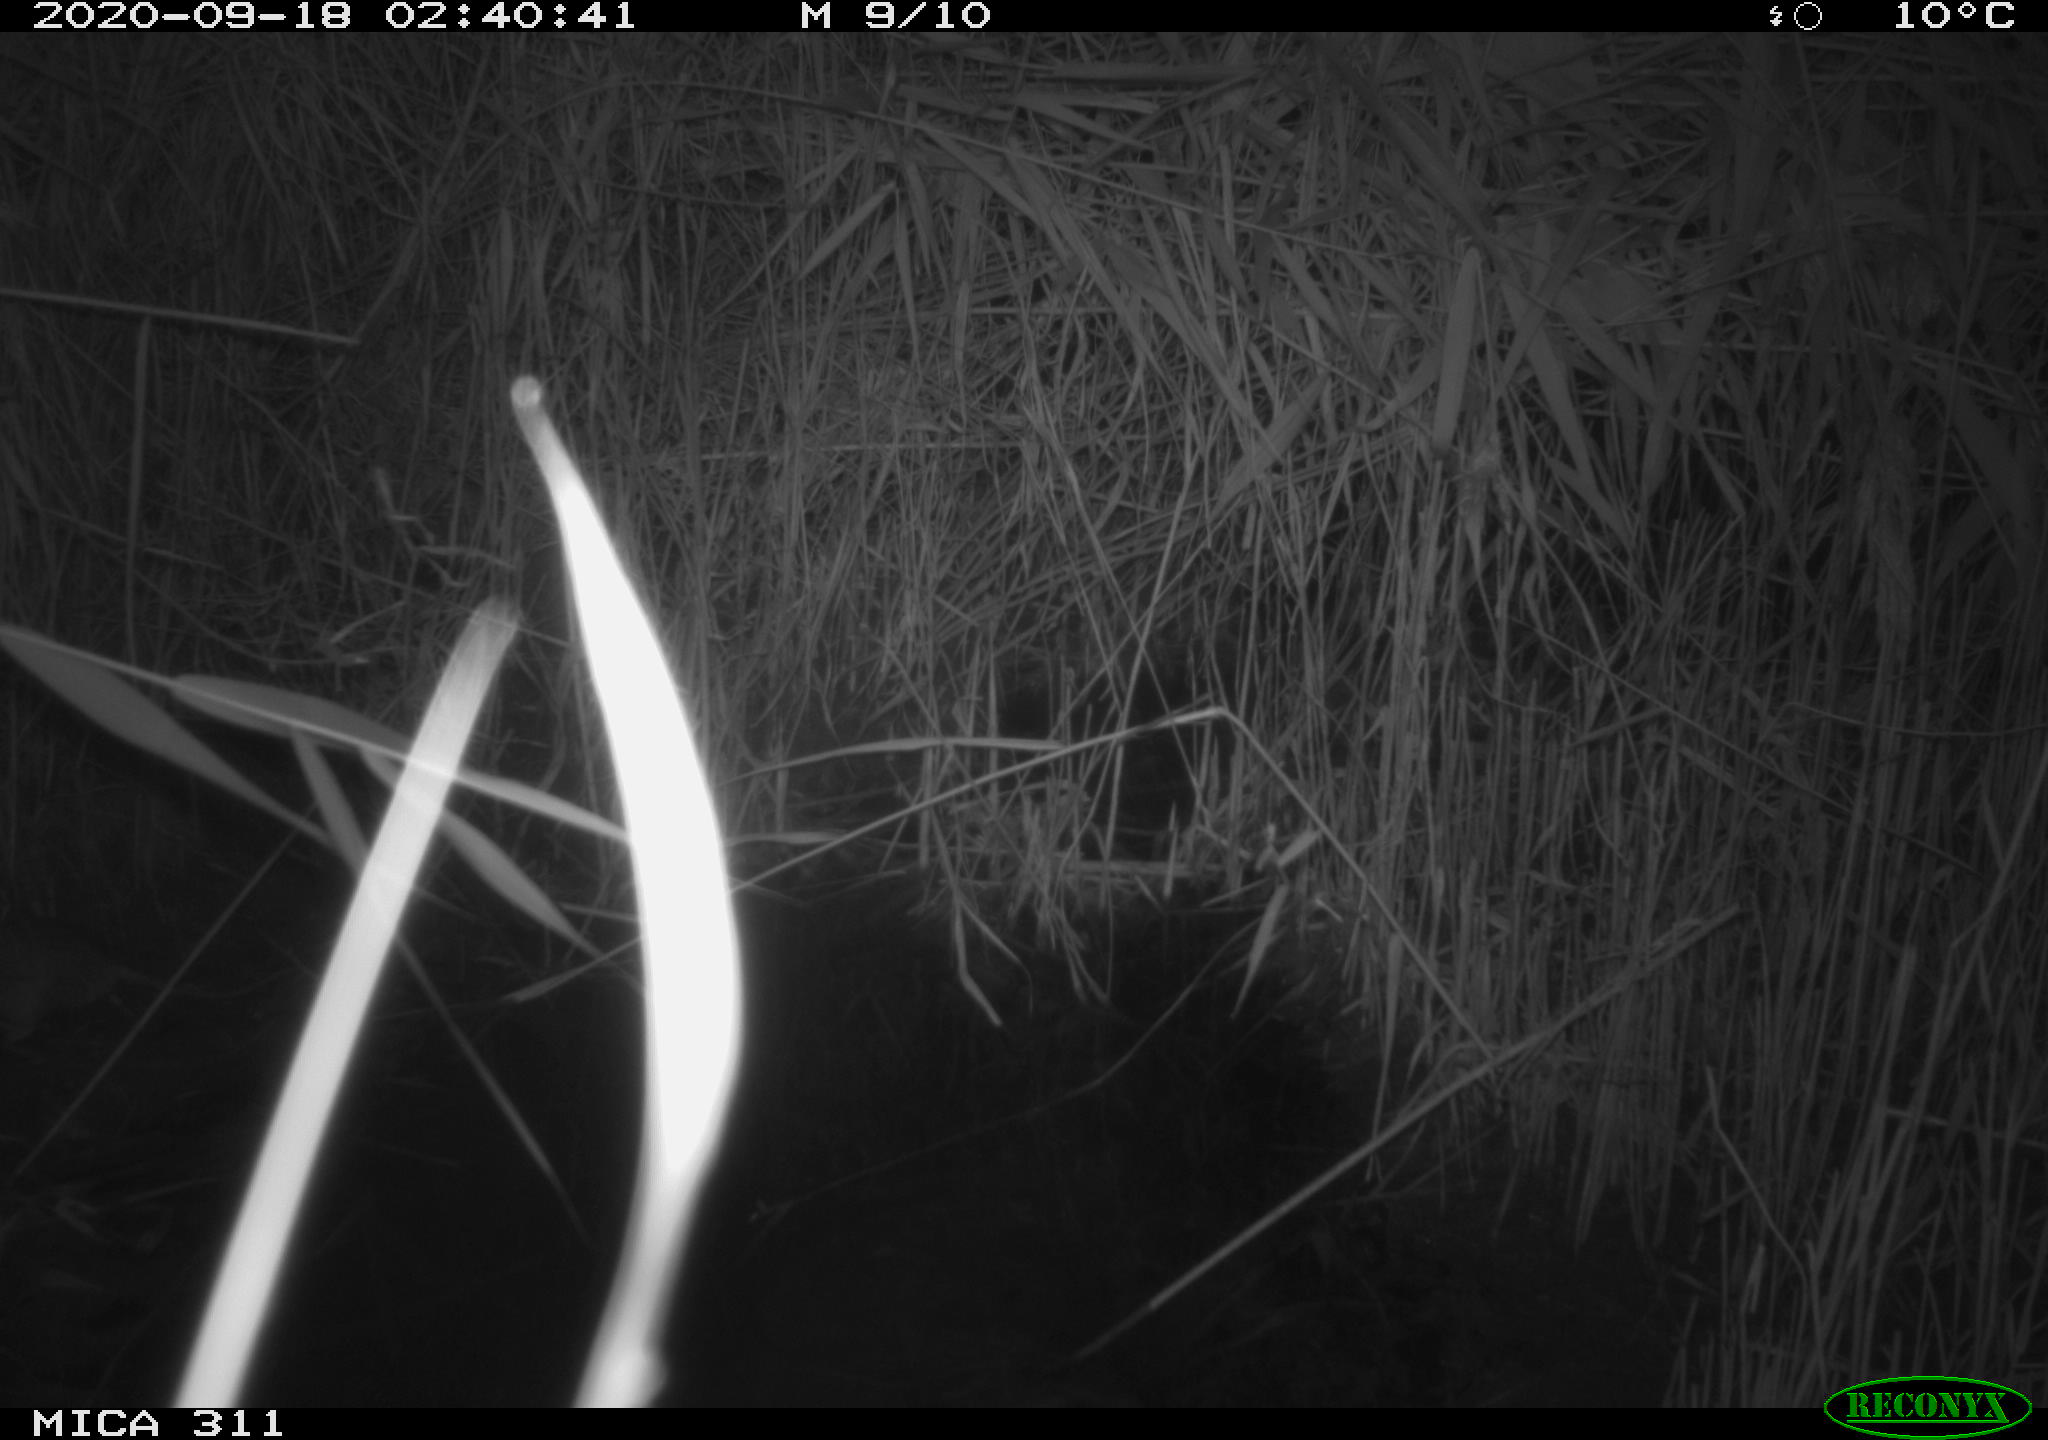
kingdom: Animalia
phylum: Chordata
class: Mammalia
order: Rodentia
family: Muridae
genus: Rattus
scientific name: Rattus norvegicus
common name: Brown rat
